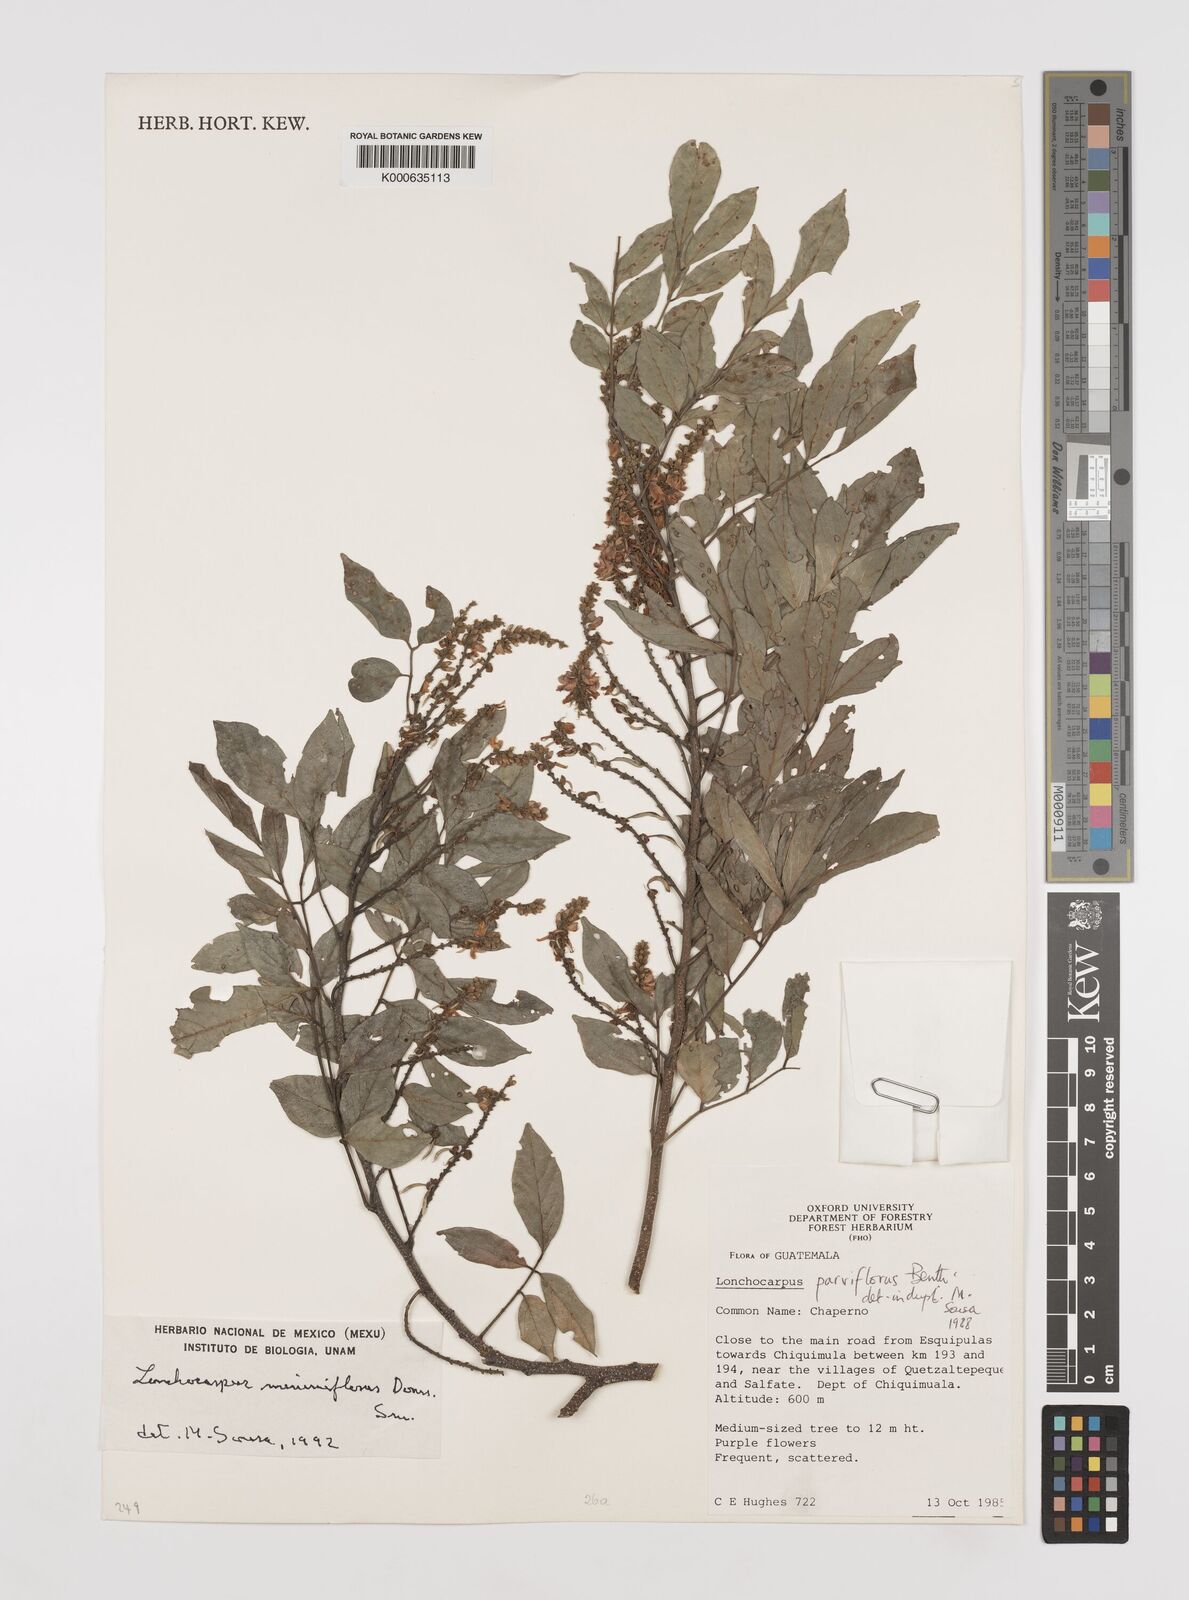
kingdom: Plantae
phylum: Tracheophyta
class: Magnoliopsida
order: Fabales
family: Fabaceae
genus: Lonchocarpus
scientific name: Lonchocarpus minimiflorus
